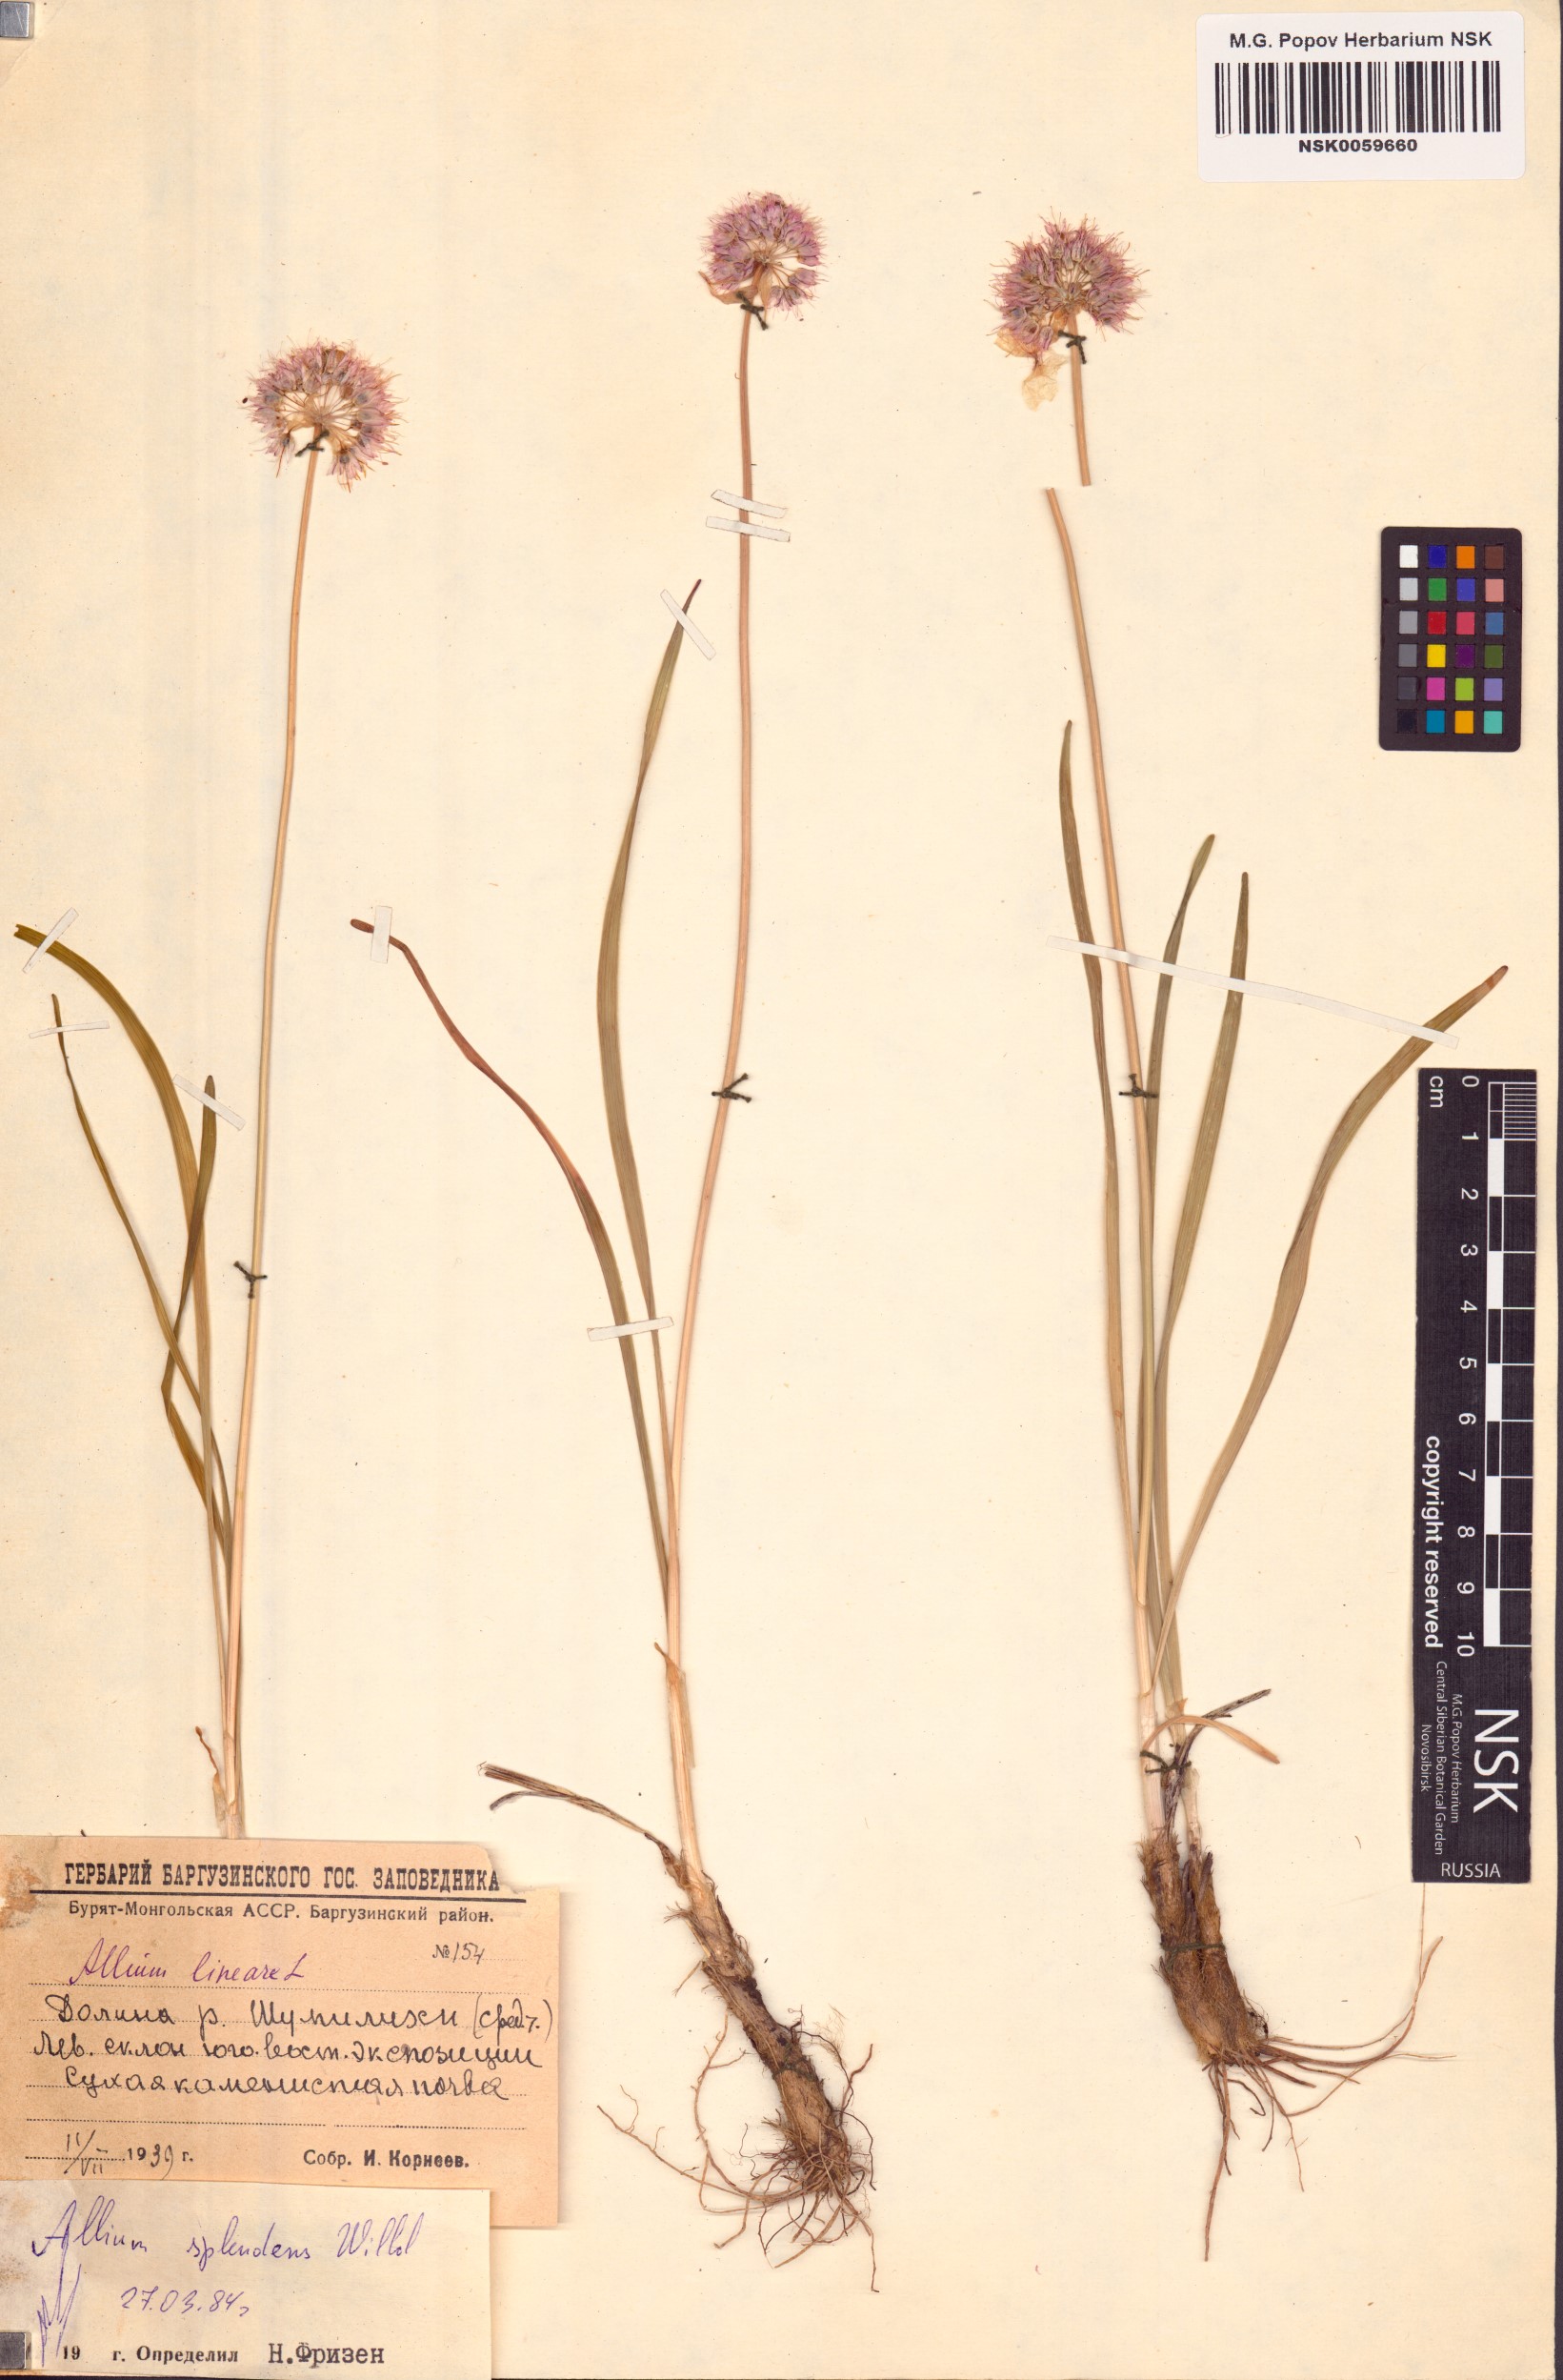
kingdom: Plantae
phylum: Tracheophyta
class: Liliopsida
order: Asparagales
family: Amaryllidaceae
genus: Allium
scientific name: Allium splendens
